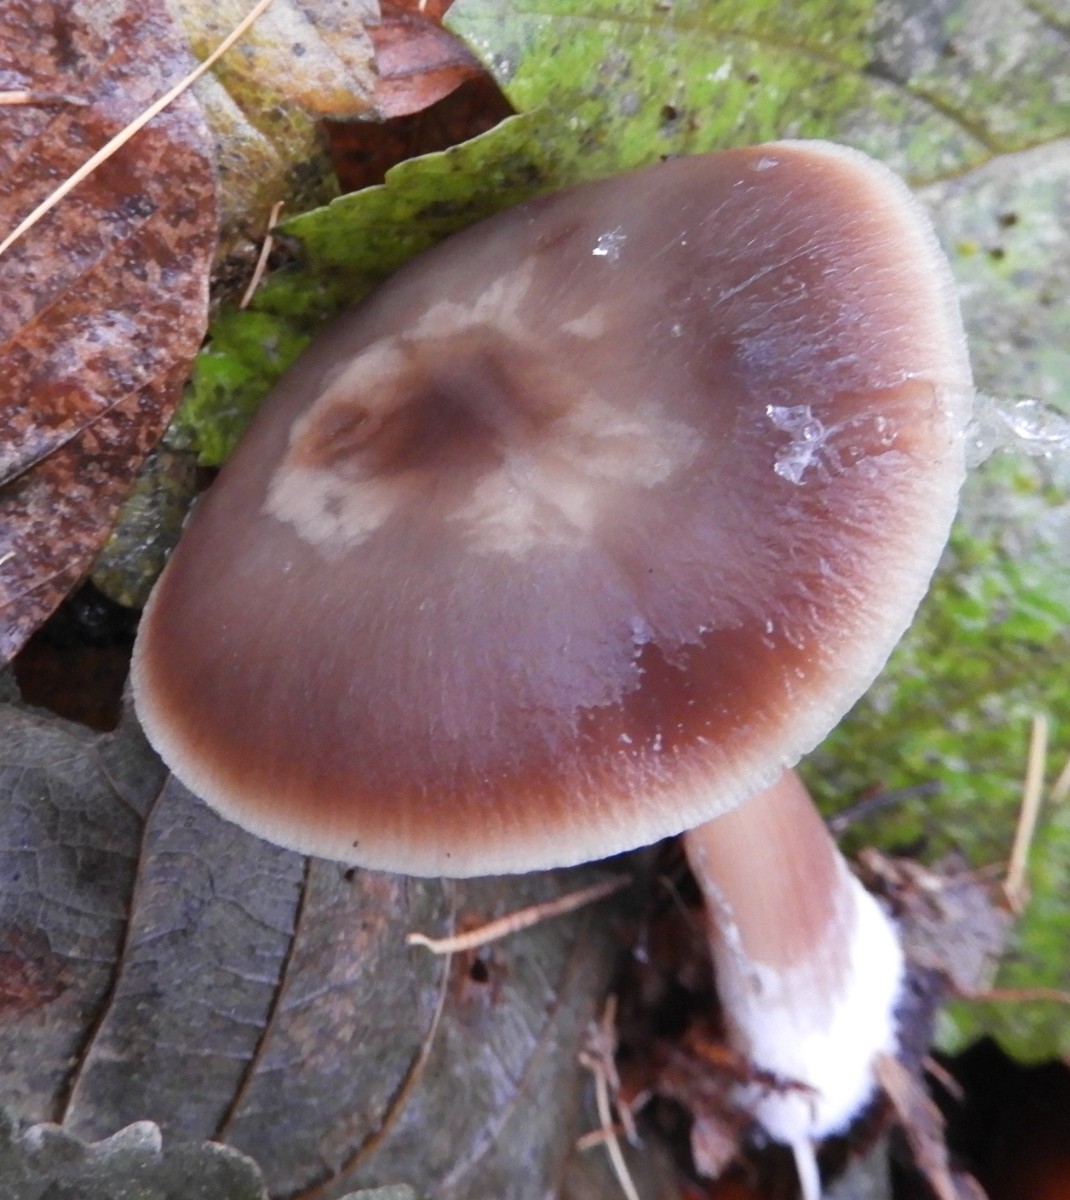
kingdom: Fungi
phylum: Basidiomycota
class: Agaricomycetes
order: Agaricales
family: Omphalotaceae
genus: Rhodocollybia
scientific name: Rhodocollybia asema
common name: horngrå fladhat
